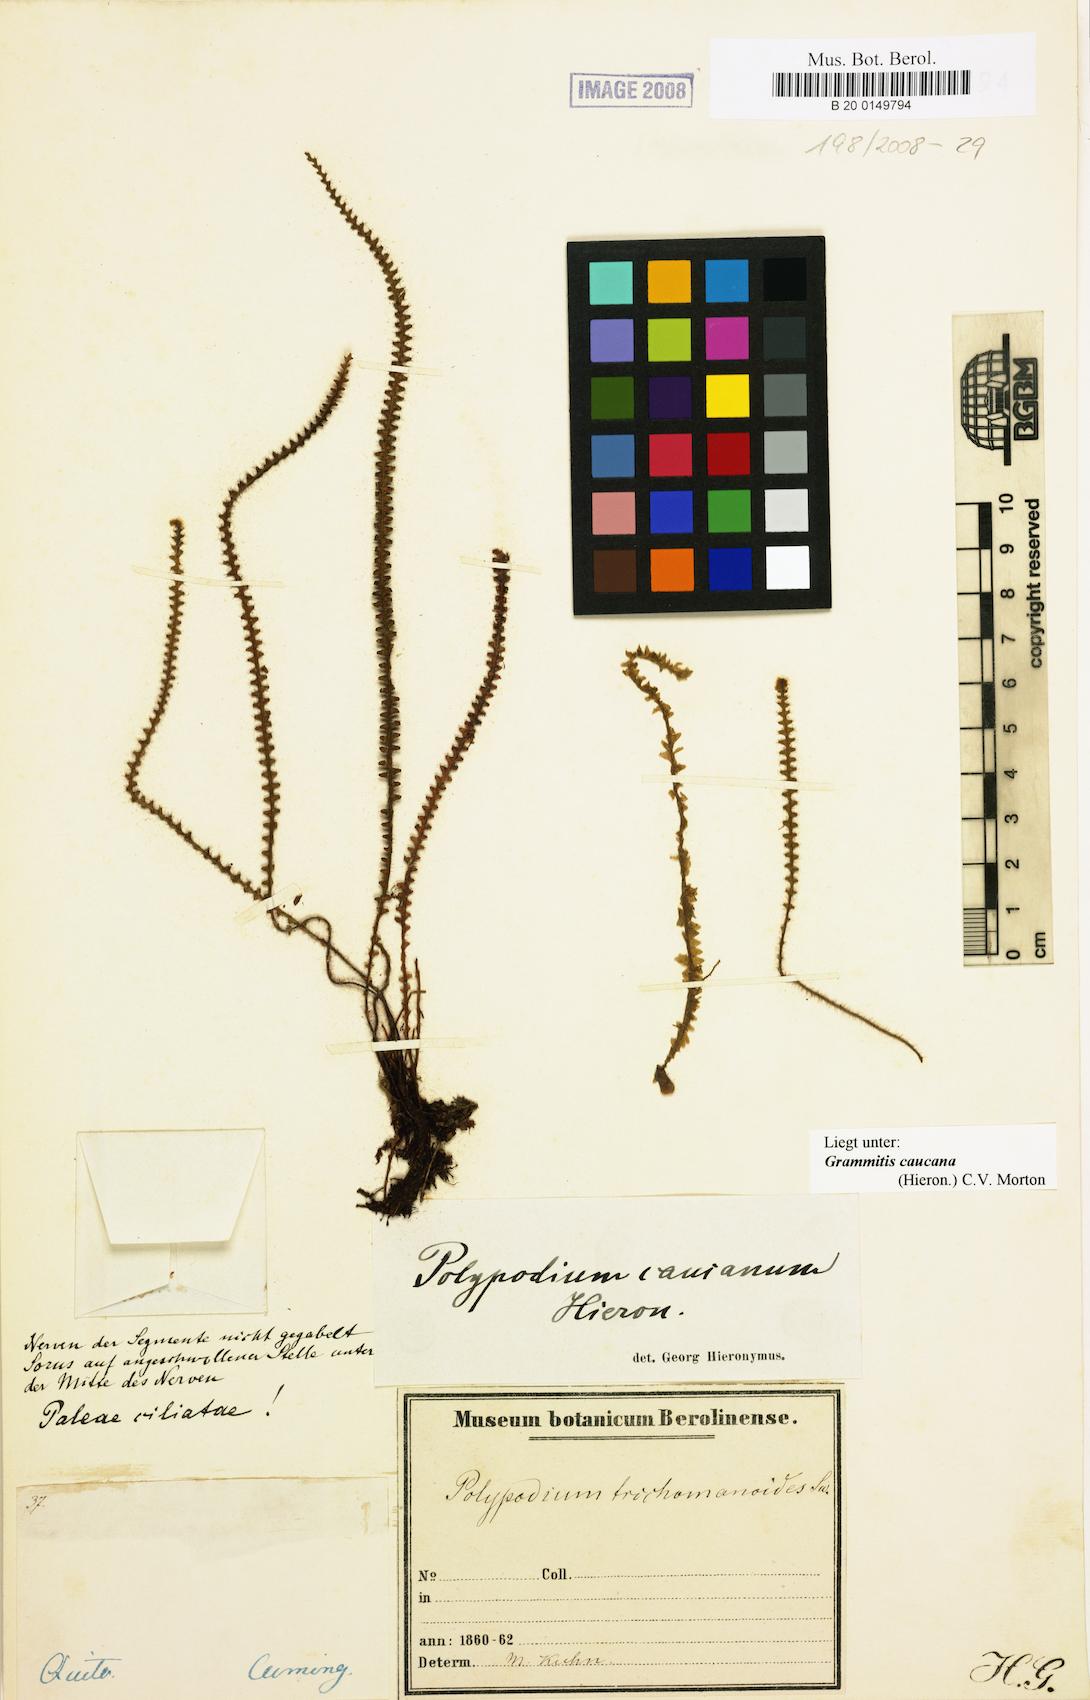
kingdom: Plantae
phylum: Tracheophyta
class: Polypodiopsida
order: Polypodiales
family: Polypodiaceae
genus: Moranopteris
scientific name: Moranopteris caucana
